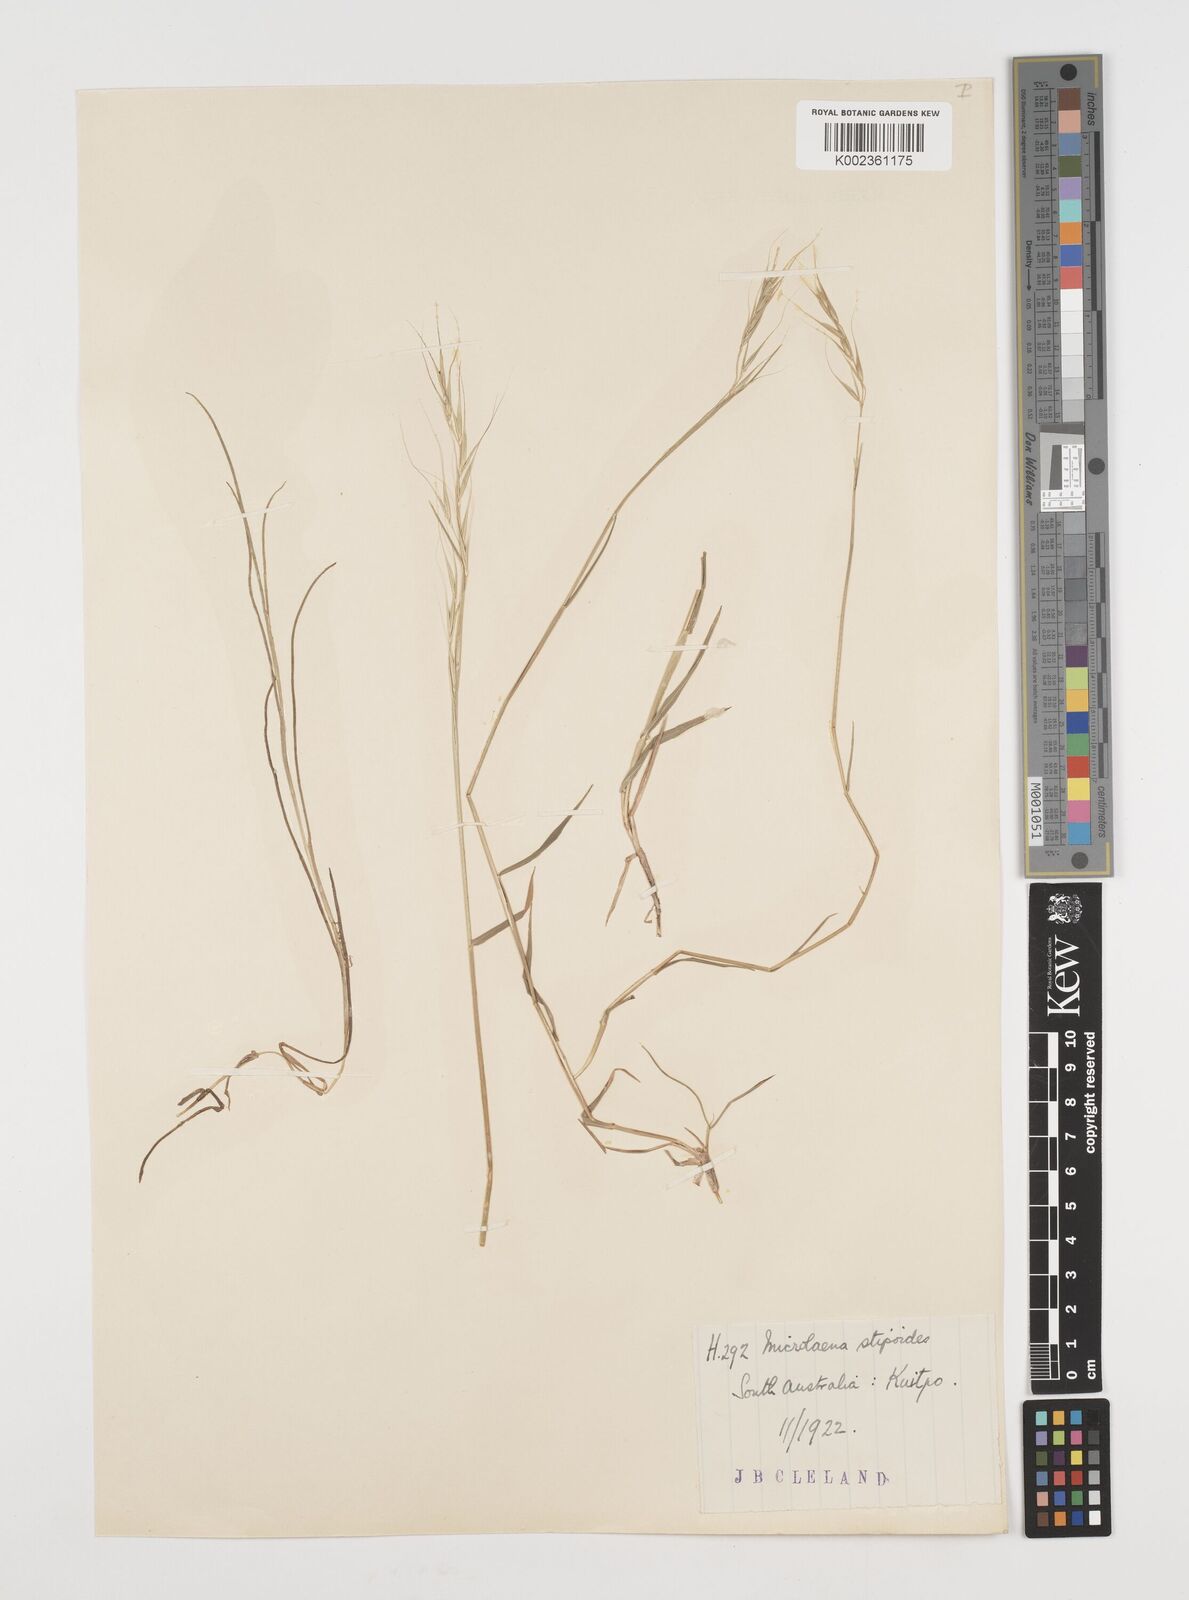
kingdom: Plantae
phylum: Tracheophyta
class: Liliopsida
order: Poales
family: Poaceae
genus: Microlaena
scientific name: Microlaena stipoides
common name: Meadow ricegrass
